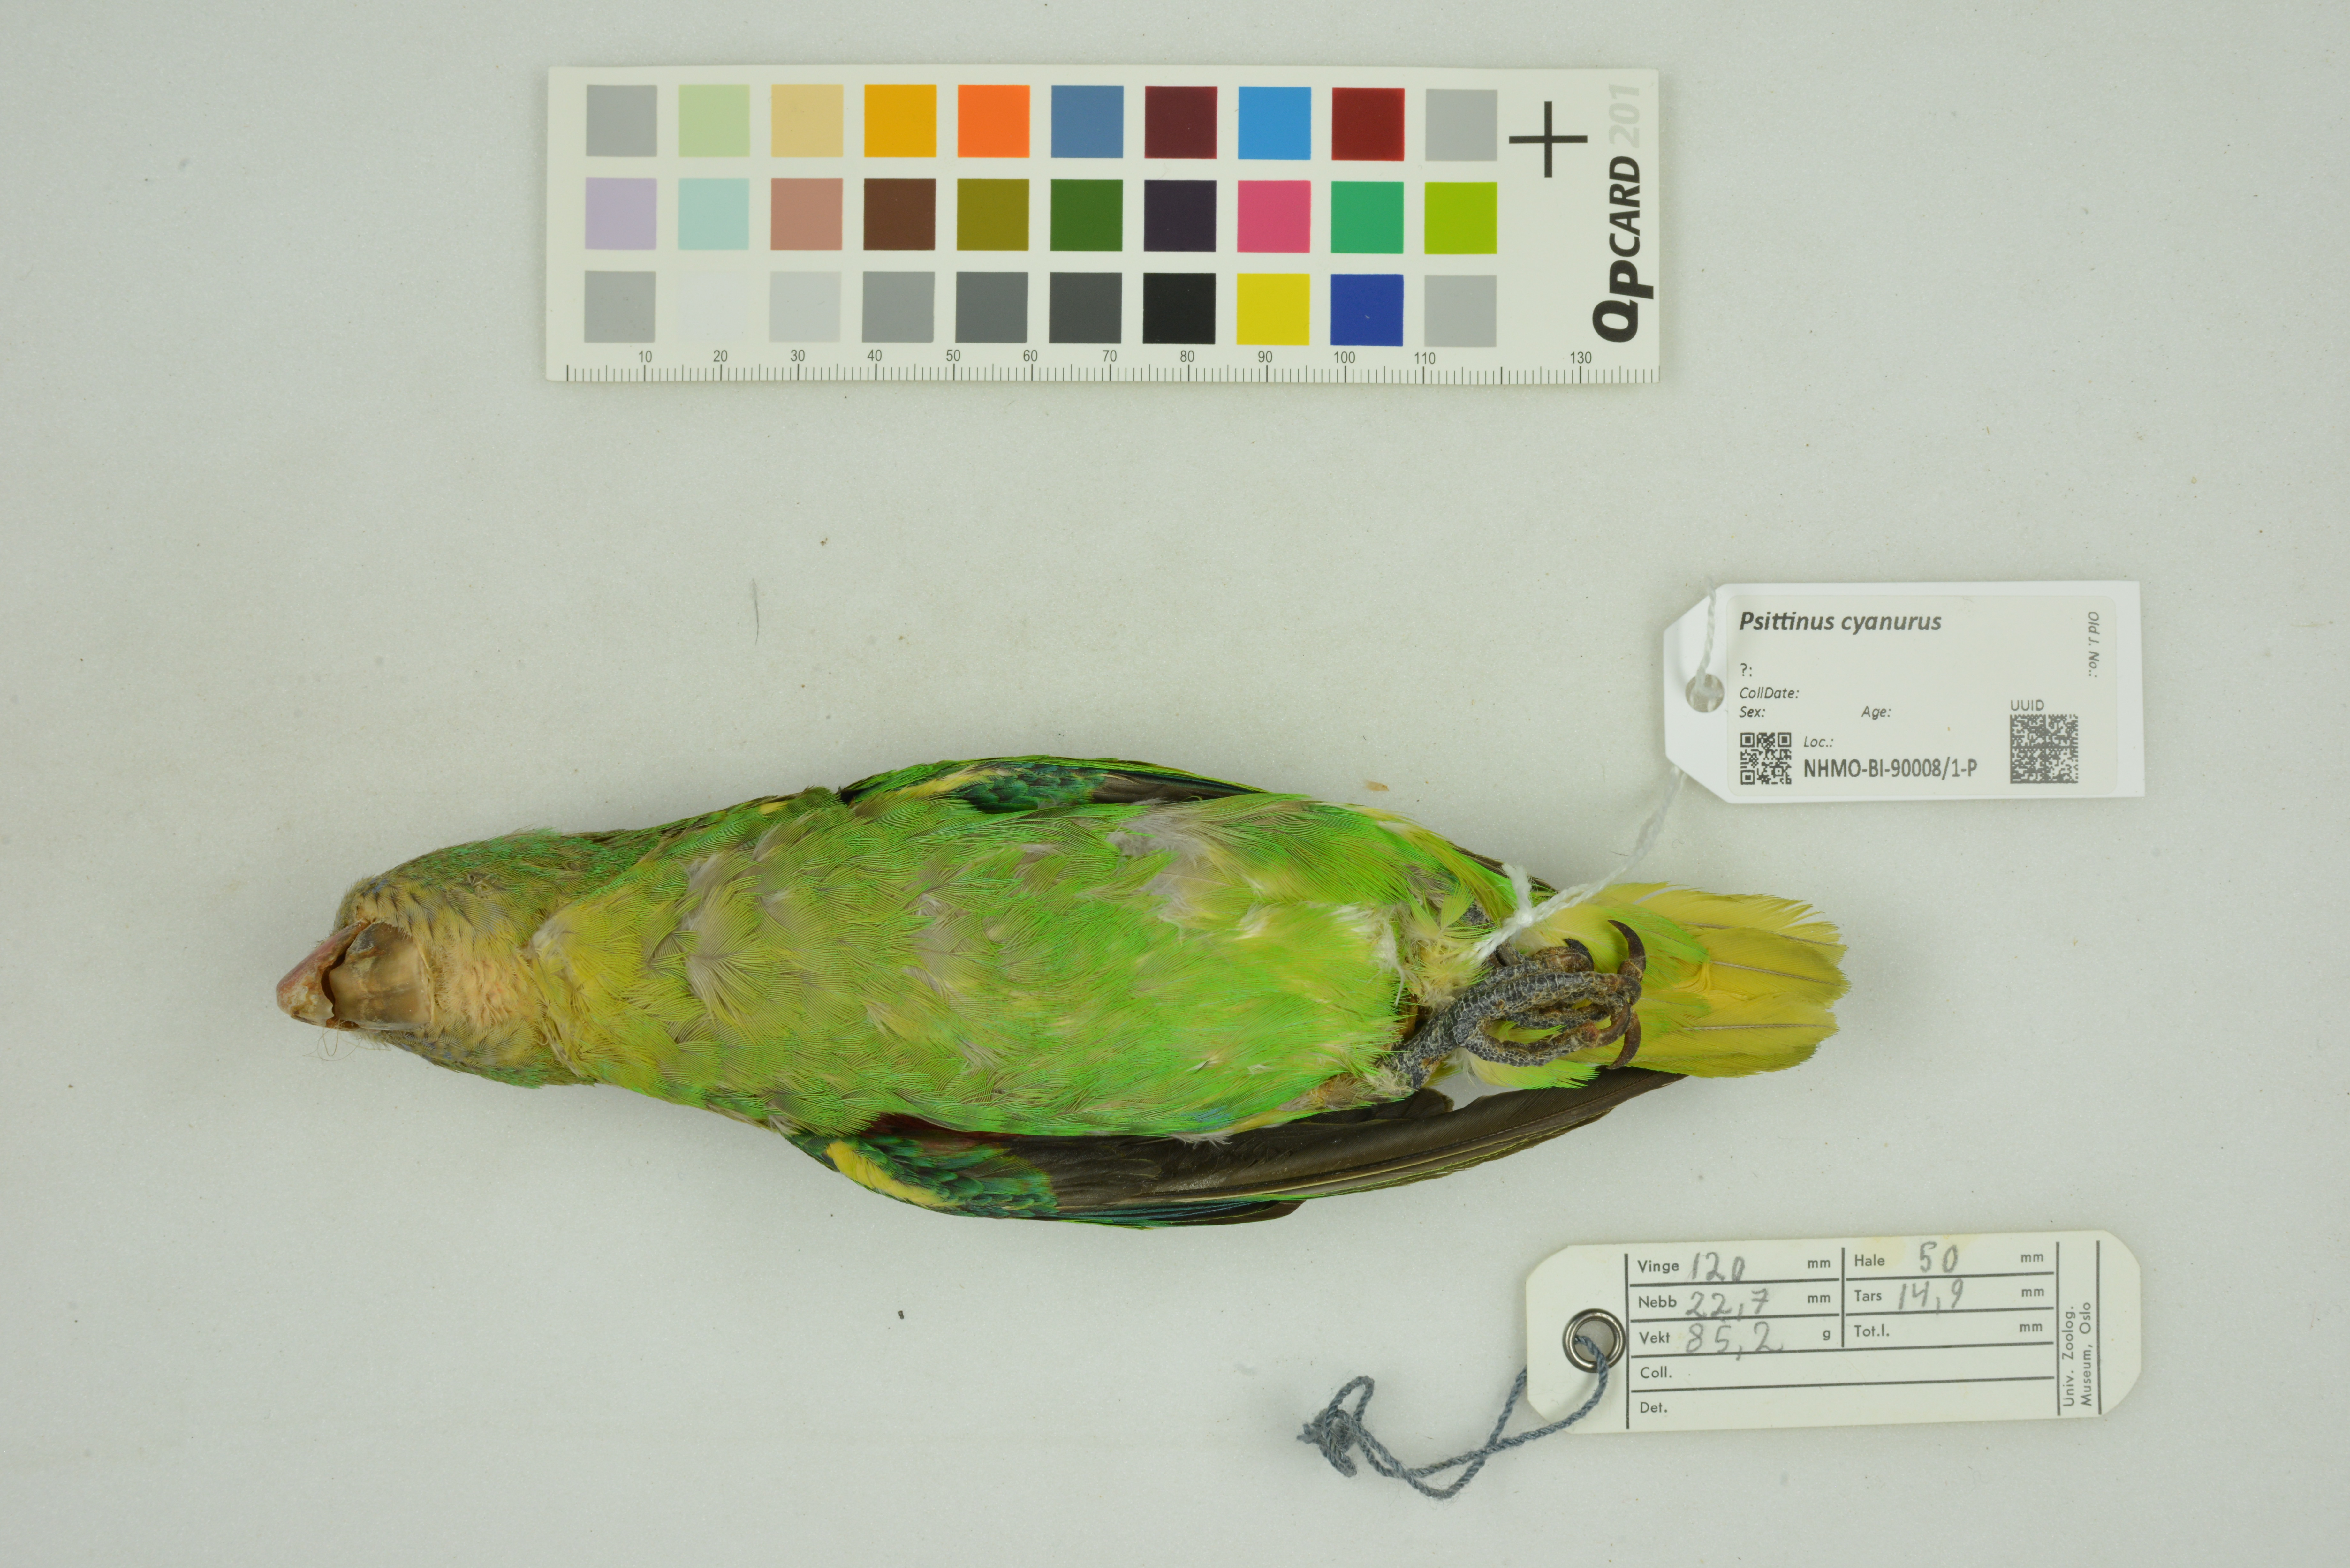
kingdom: Animalia
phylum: Chordata
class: Aves
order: Psittaciformes
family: Psittacidae
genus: Psittinus
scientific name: Psittinus cyanurus
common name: Blue-rumped parrot
